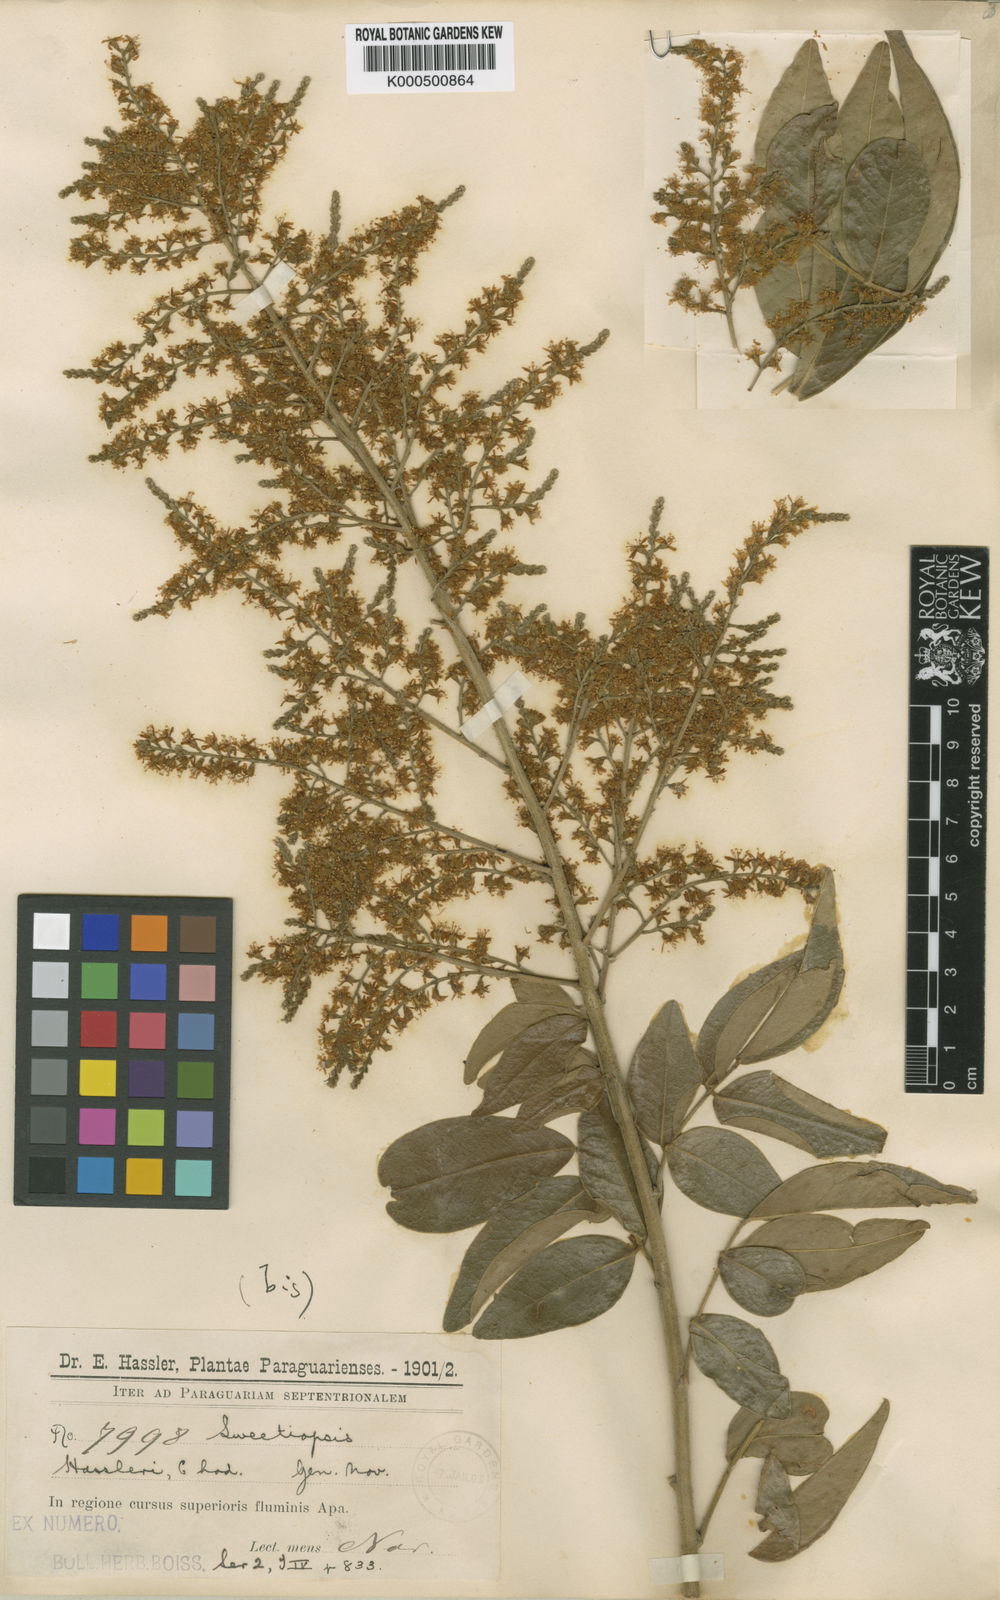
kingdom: Plantae
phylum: Tracheophyta
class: Magnoliopsida
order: Fabales
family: Fabaceae
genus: Riedeliella
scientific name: Riedeliella graciliflora
